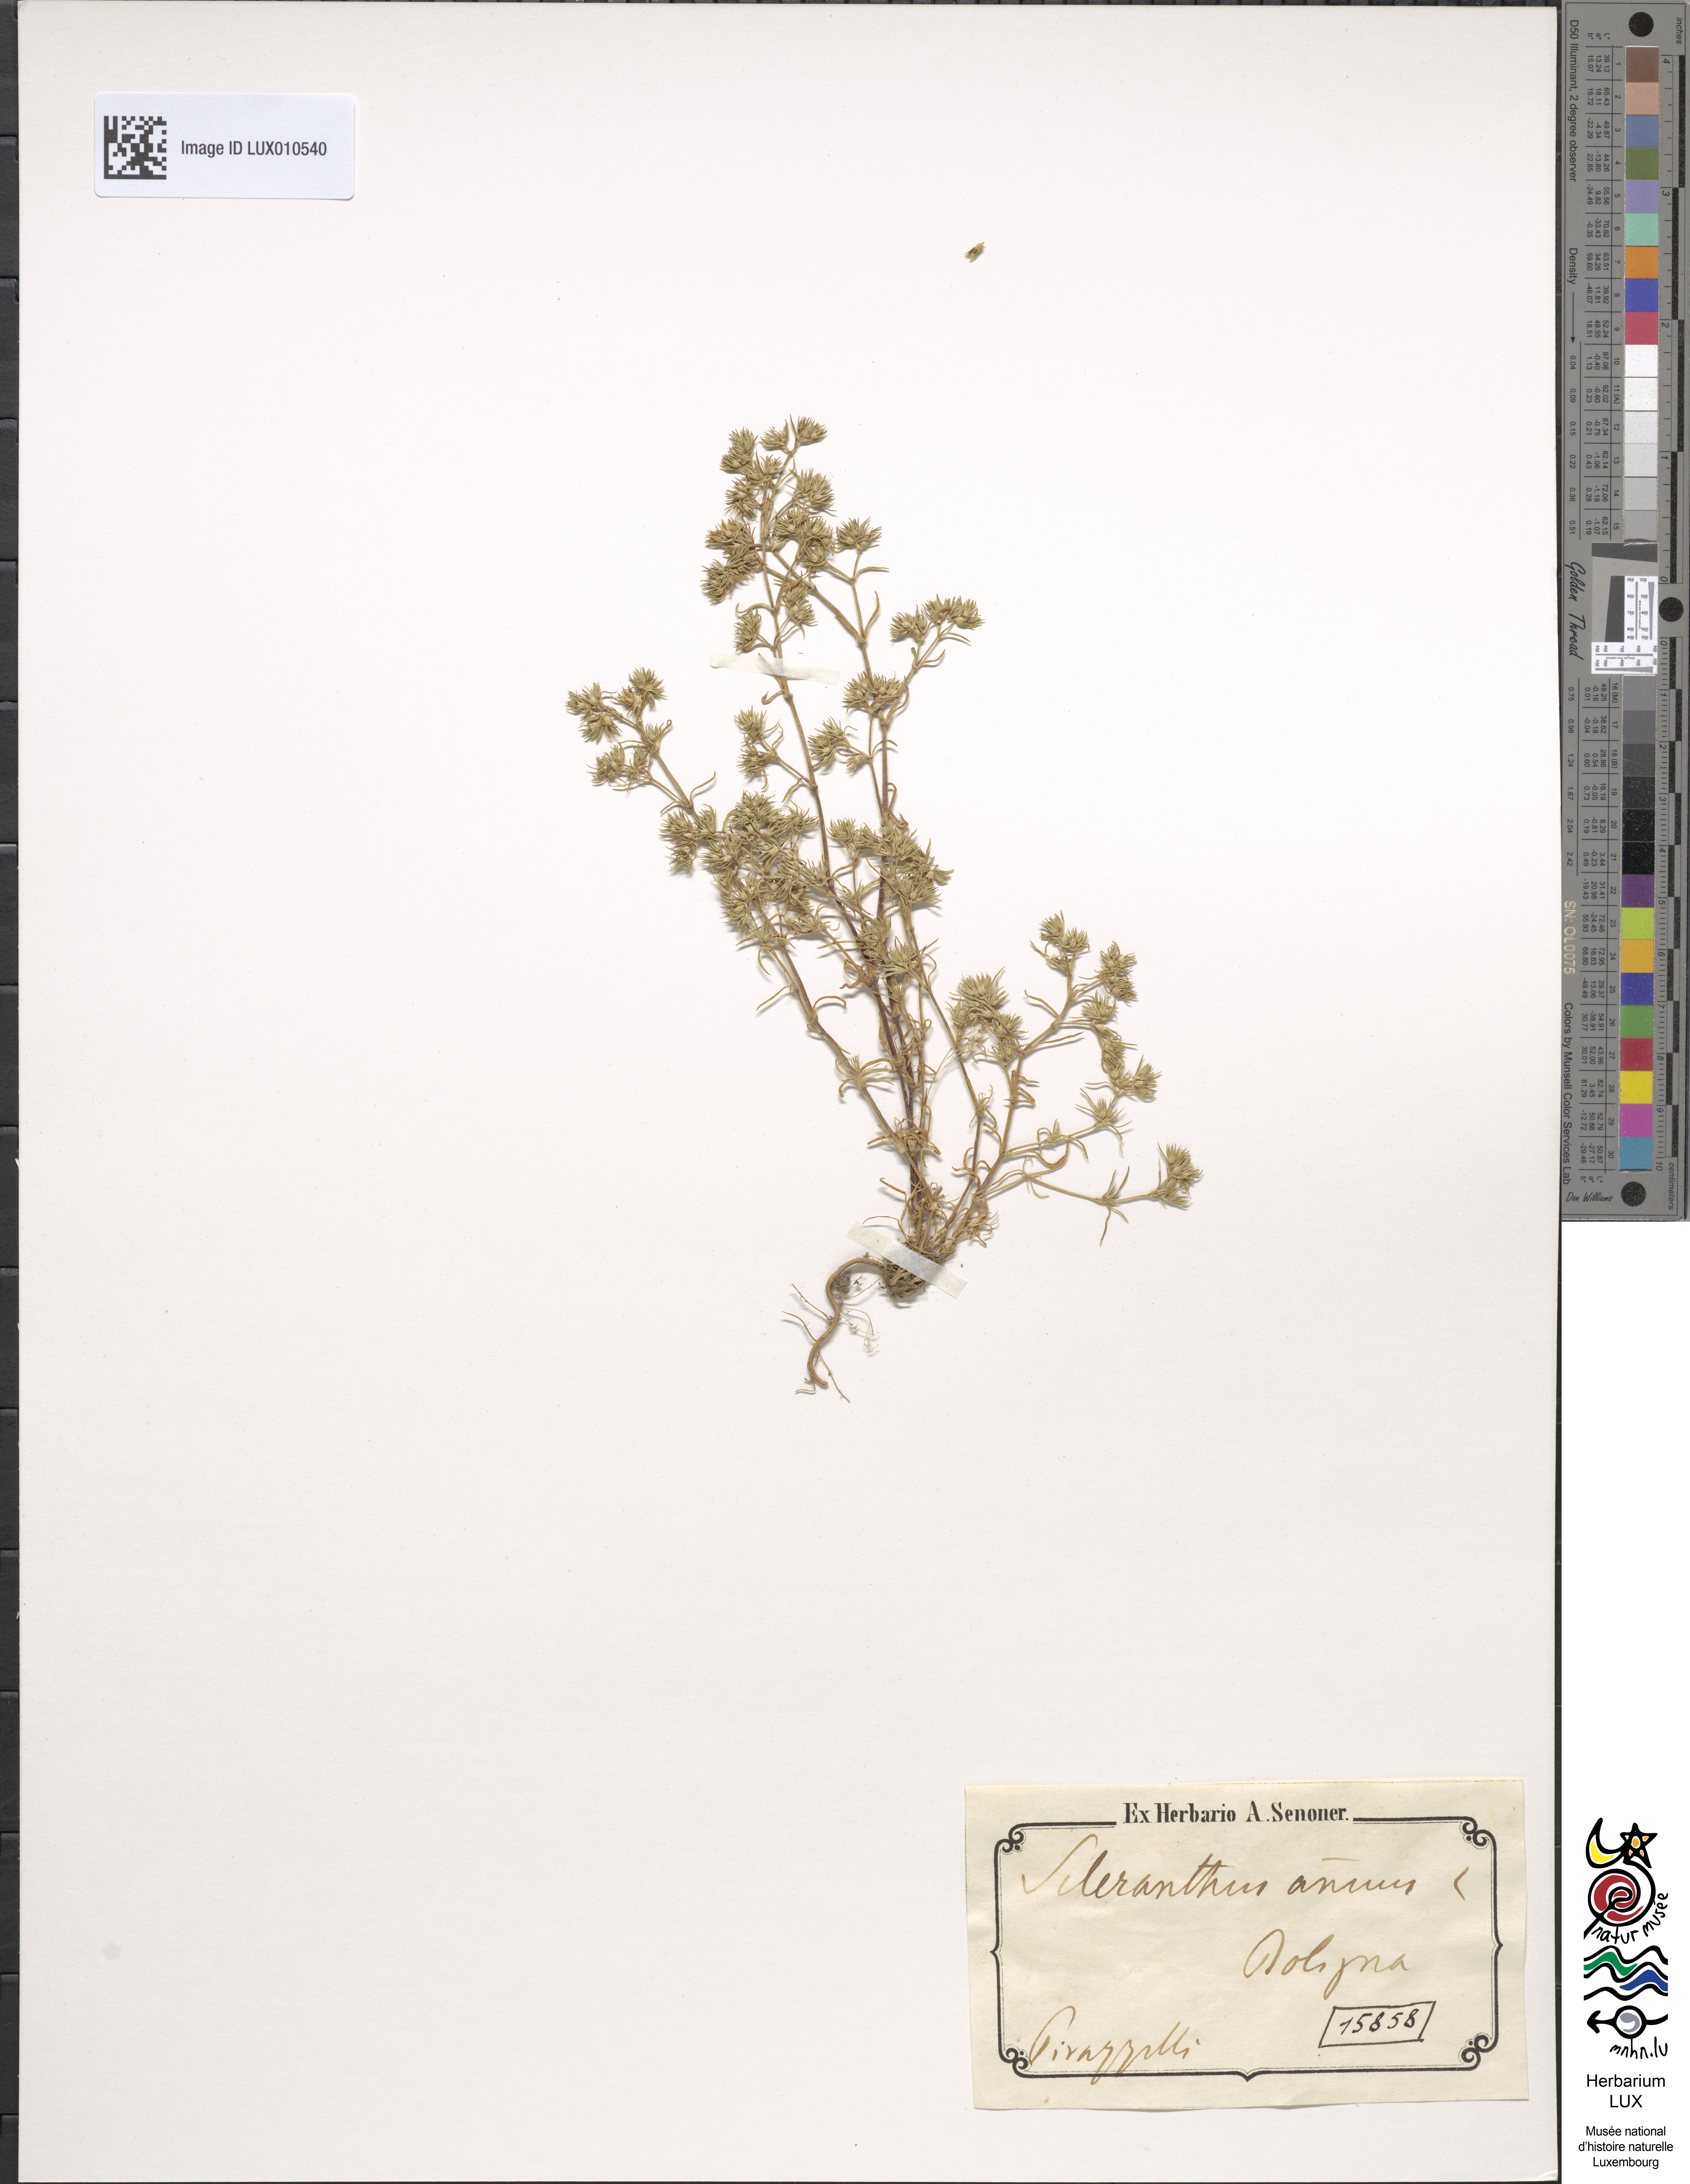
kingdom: Plantae
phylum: Tracheophyta
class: Magnoliopsida
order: Caryophyllales
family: Caryophyllaceae
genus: Scleranthus
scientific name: Scleranthus annuus
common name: Annual knawel
